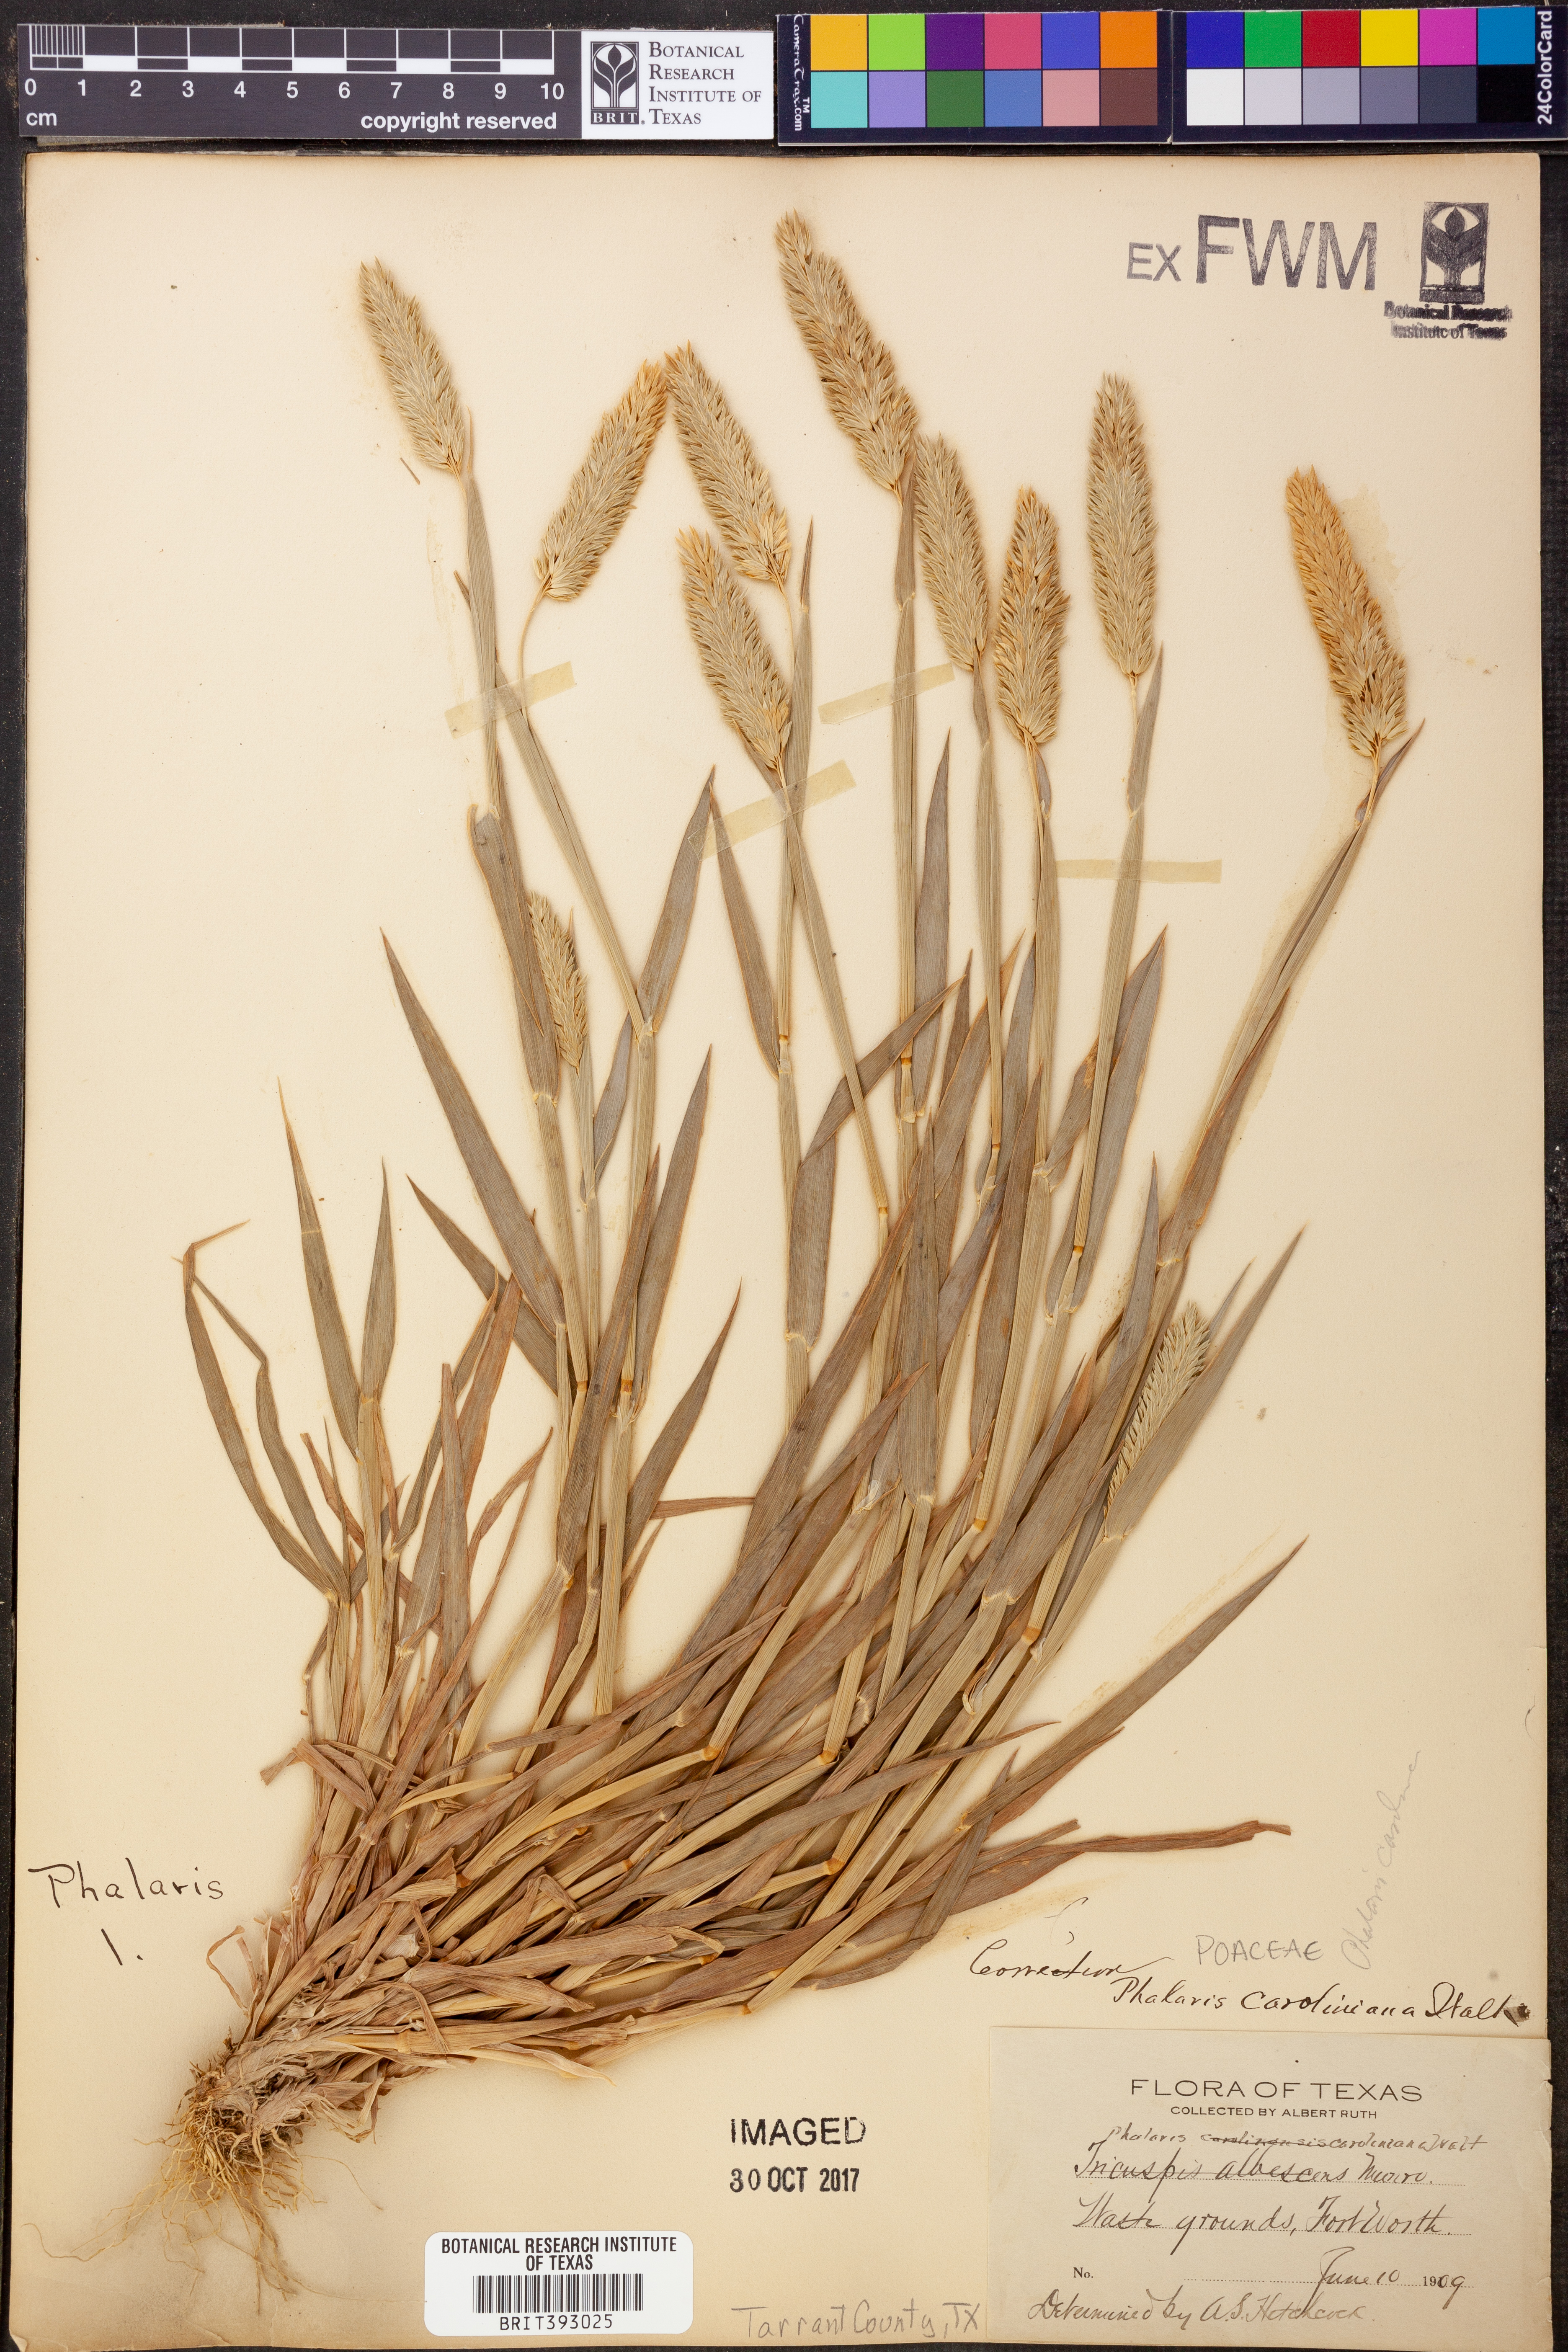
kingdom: Plantae
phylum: Tracheophyta
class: Liliopsida
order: Poales
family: Poaceae
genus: Phalaris
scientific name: Phalaris caroliniana
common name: May grass
